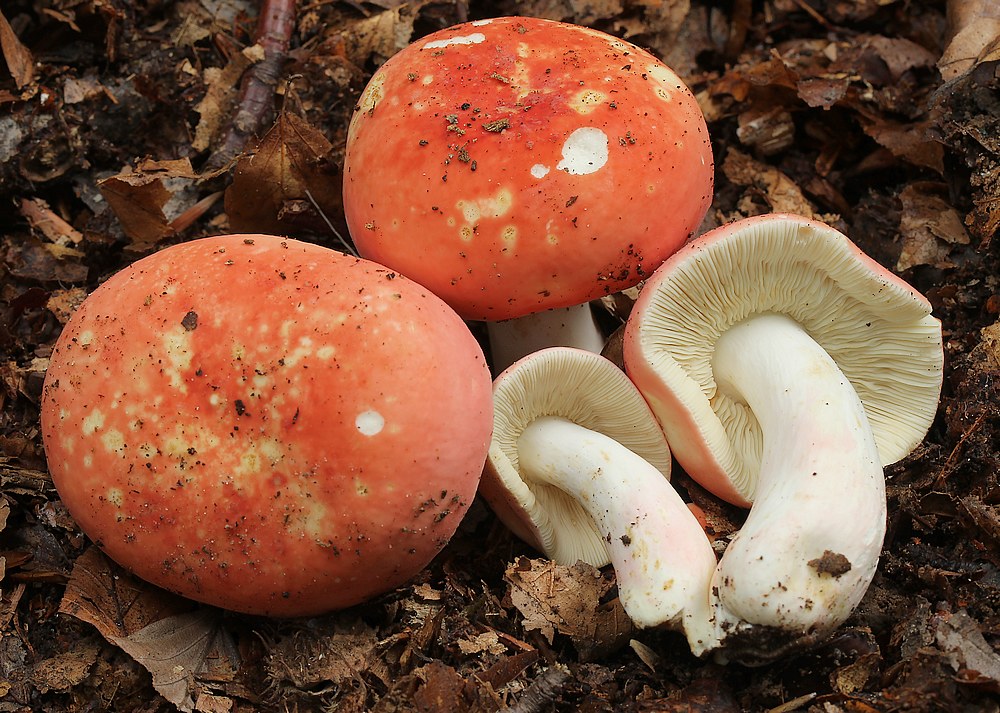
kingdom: Fungi
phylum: Basidiomycota
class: Agaricomycetes
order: Russulales
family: Russulaceae
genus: Russula
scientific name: Russula rosea
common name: fastkødet skørhat
